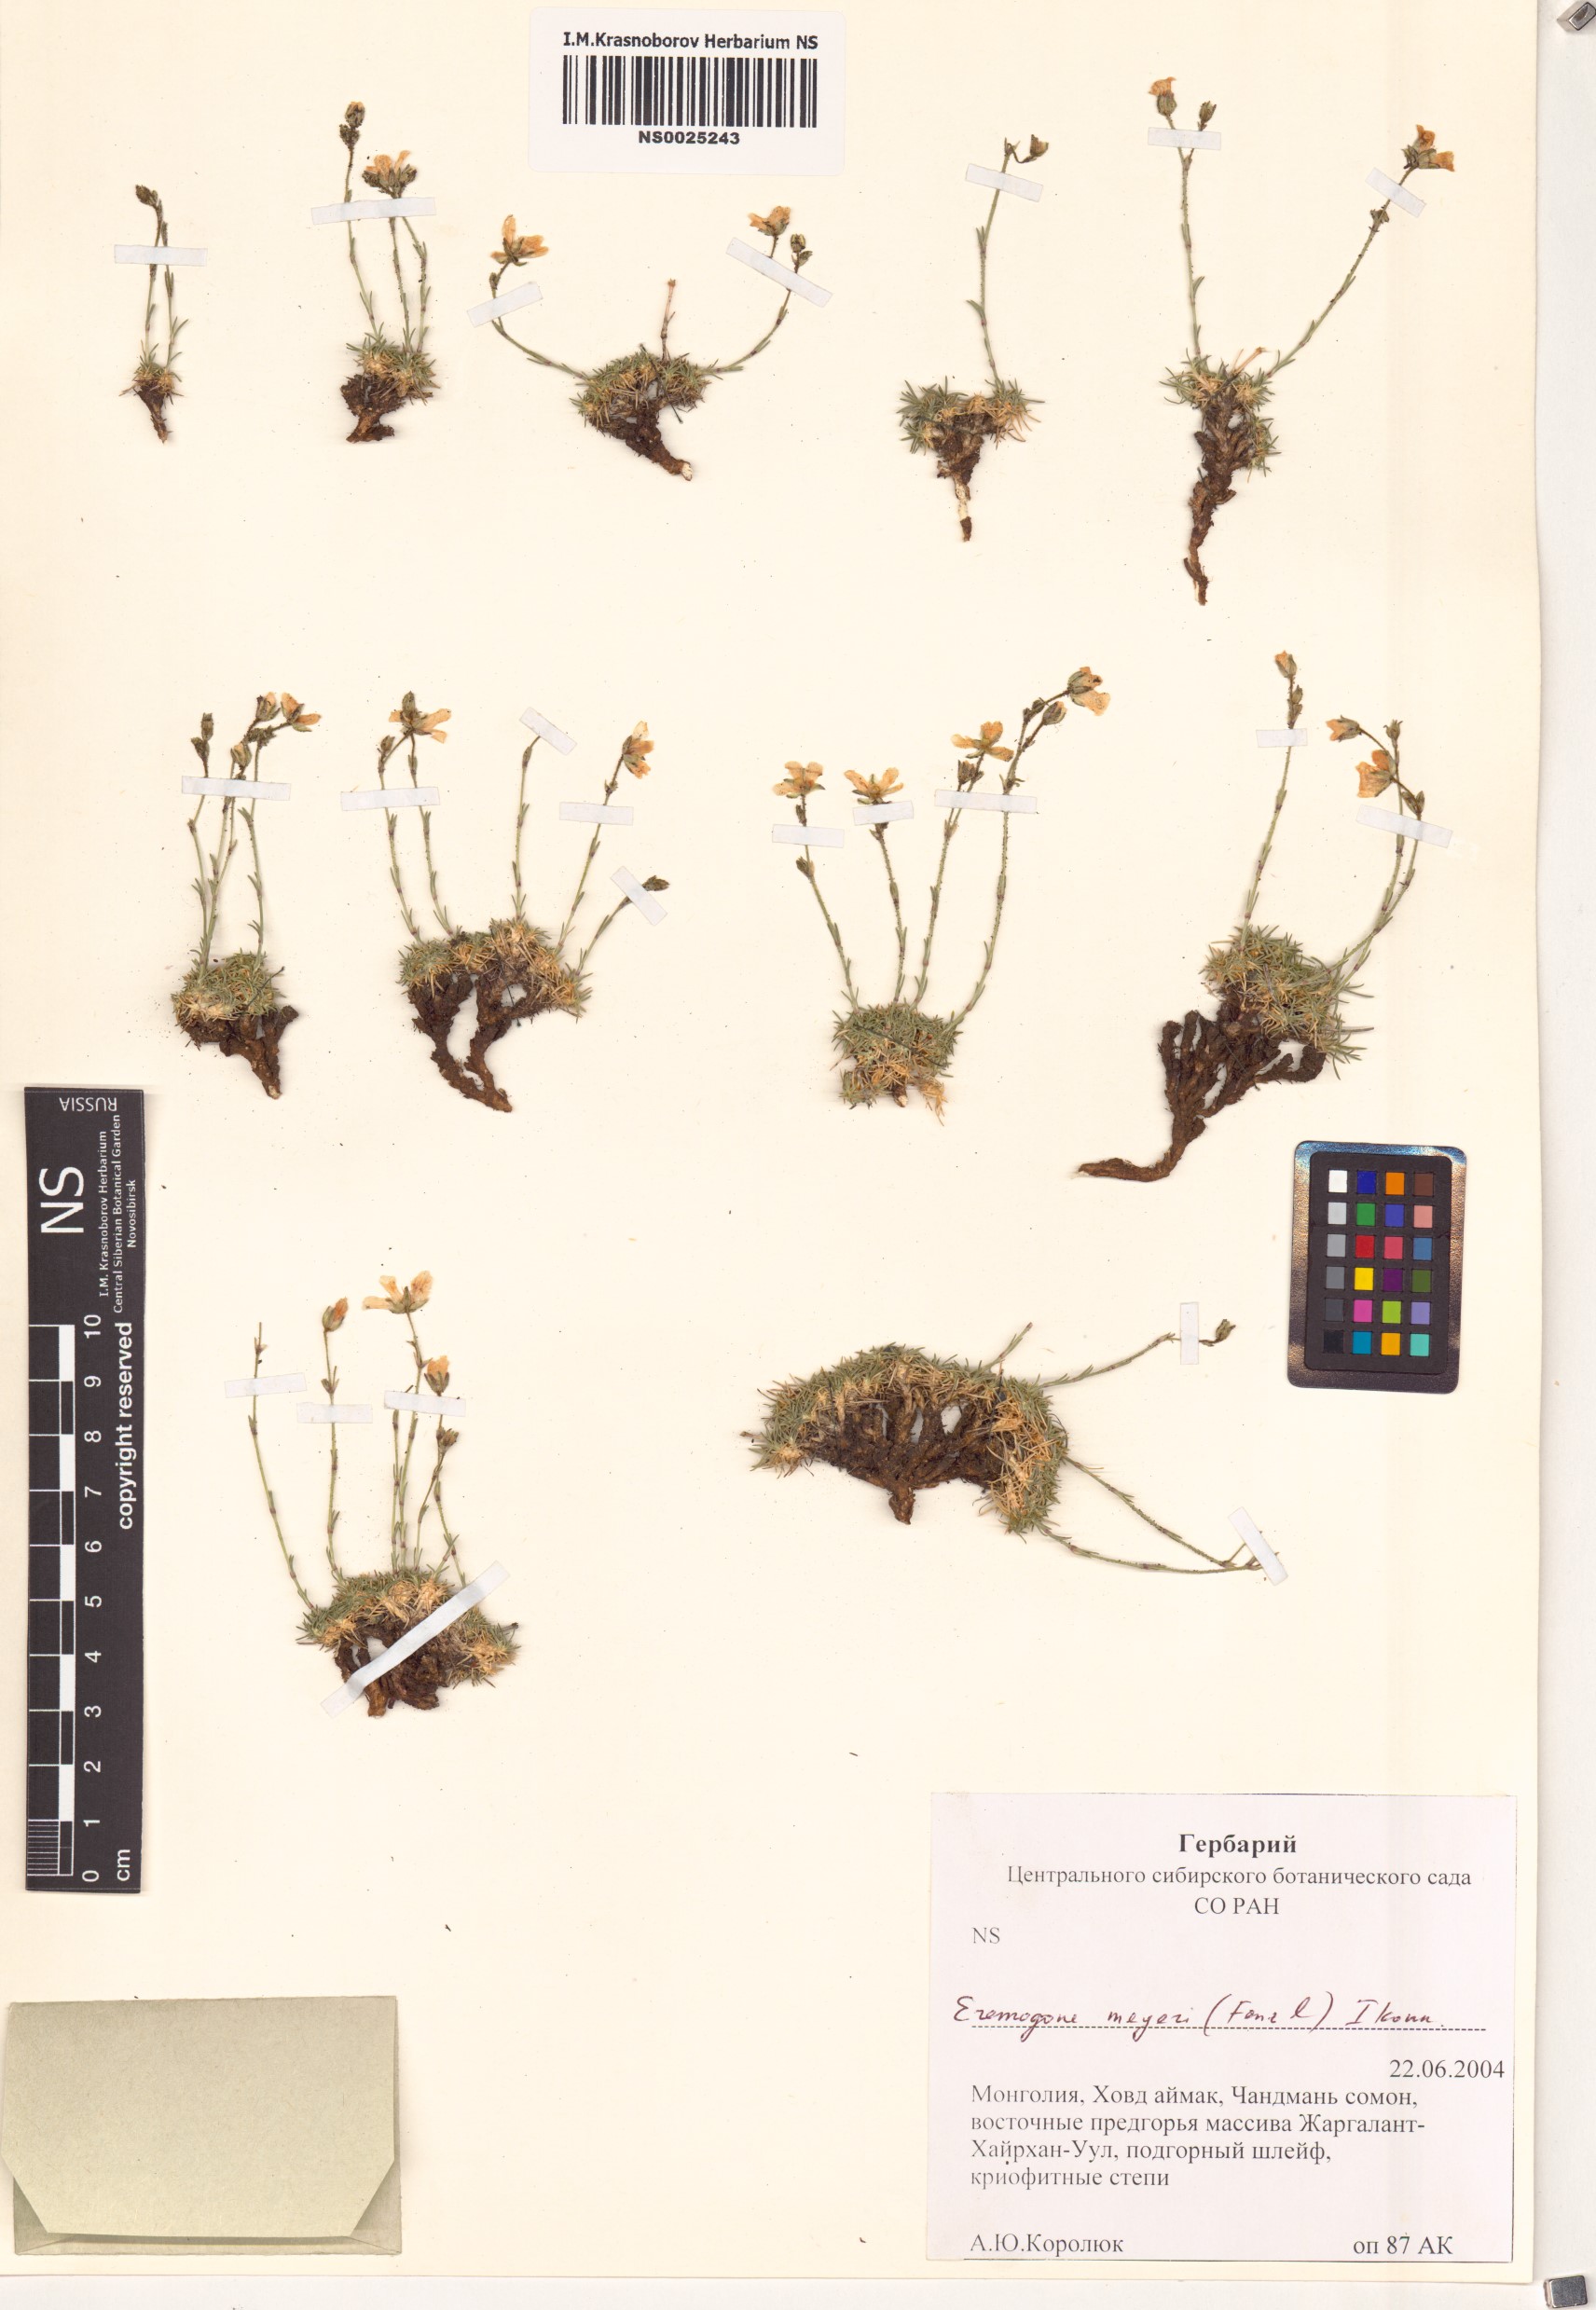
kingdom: Plantae
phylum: Tracheophyta
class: Magnoliopsida
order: Caryophyllales
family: Caryophyllaceae
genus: Eremogone
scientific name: Eremogone meyeri
